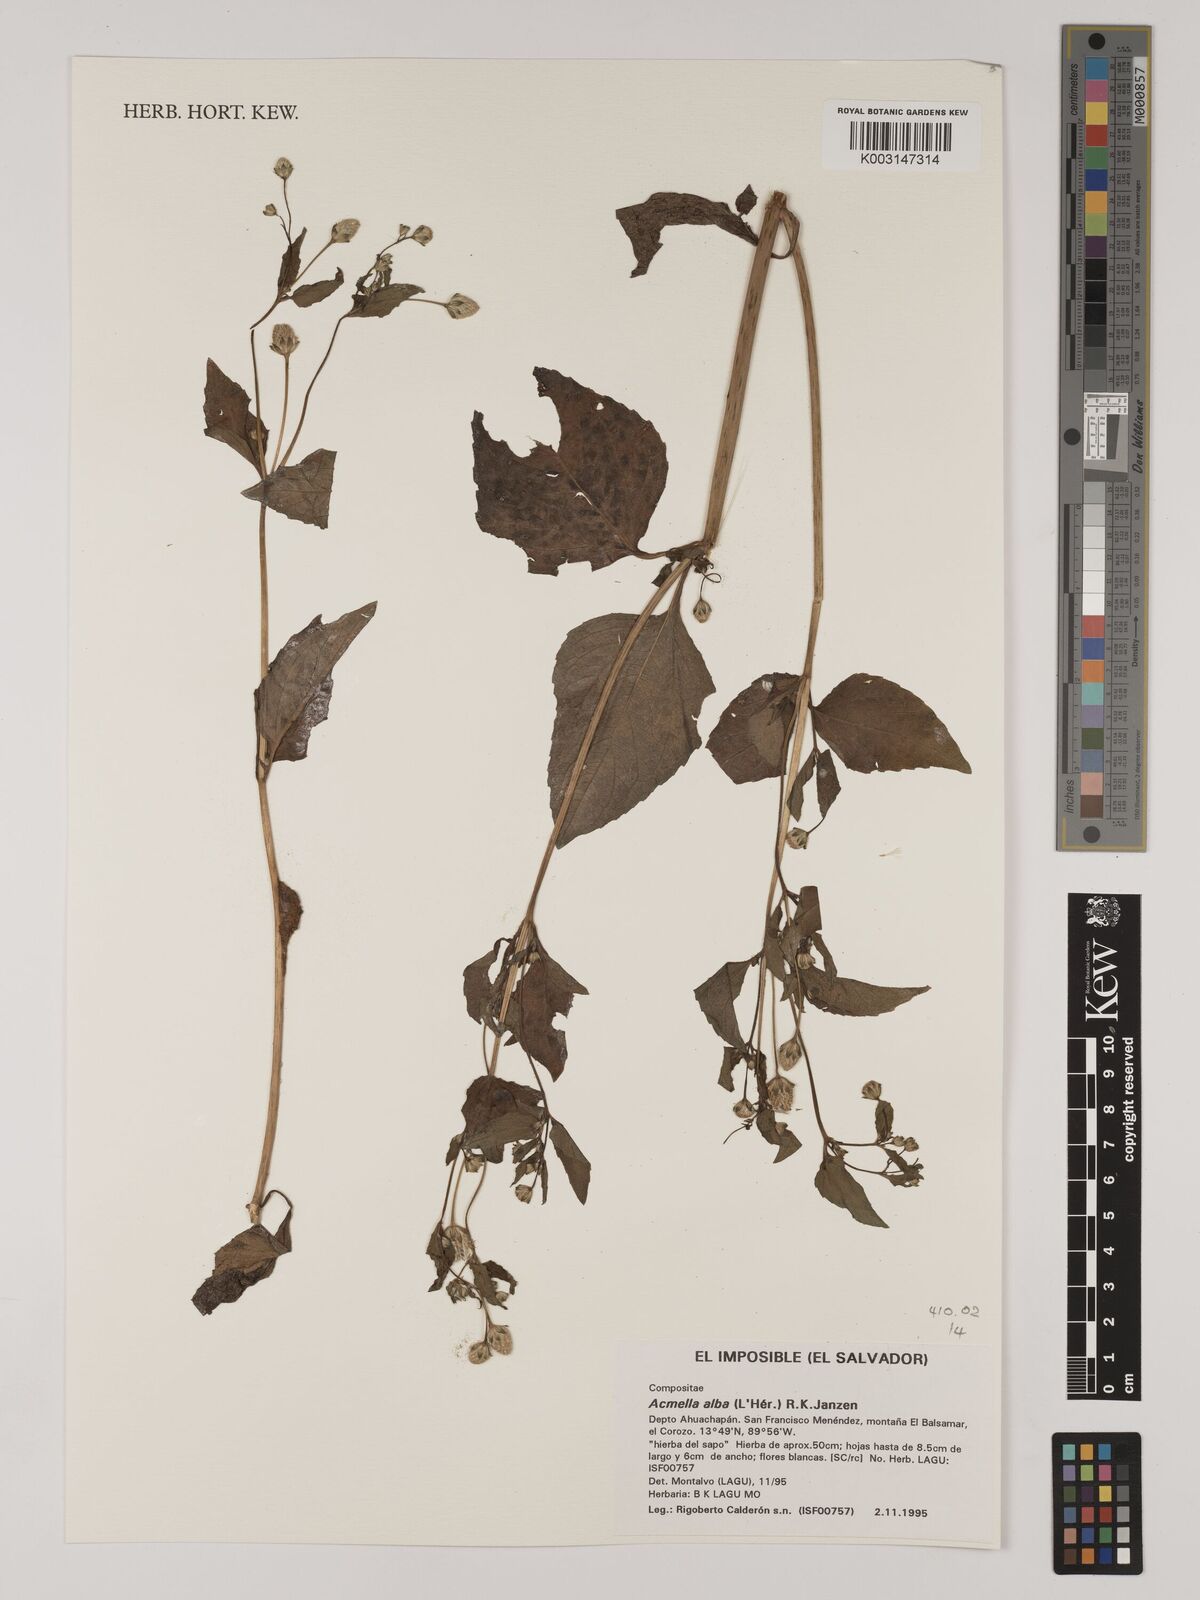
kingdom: Plantae
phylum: Tracheophyta
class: Magnoliopsida
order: Asterales
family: Asteraceae
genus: Acmella
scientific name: Acmella alba
